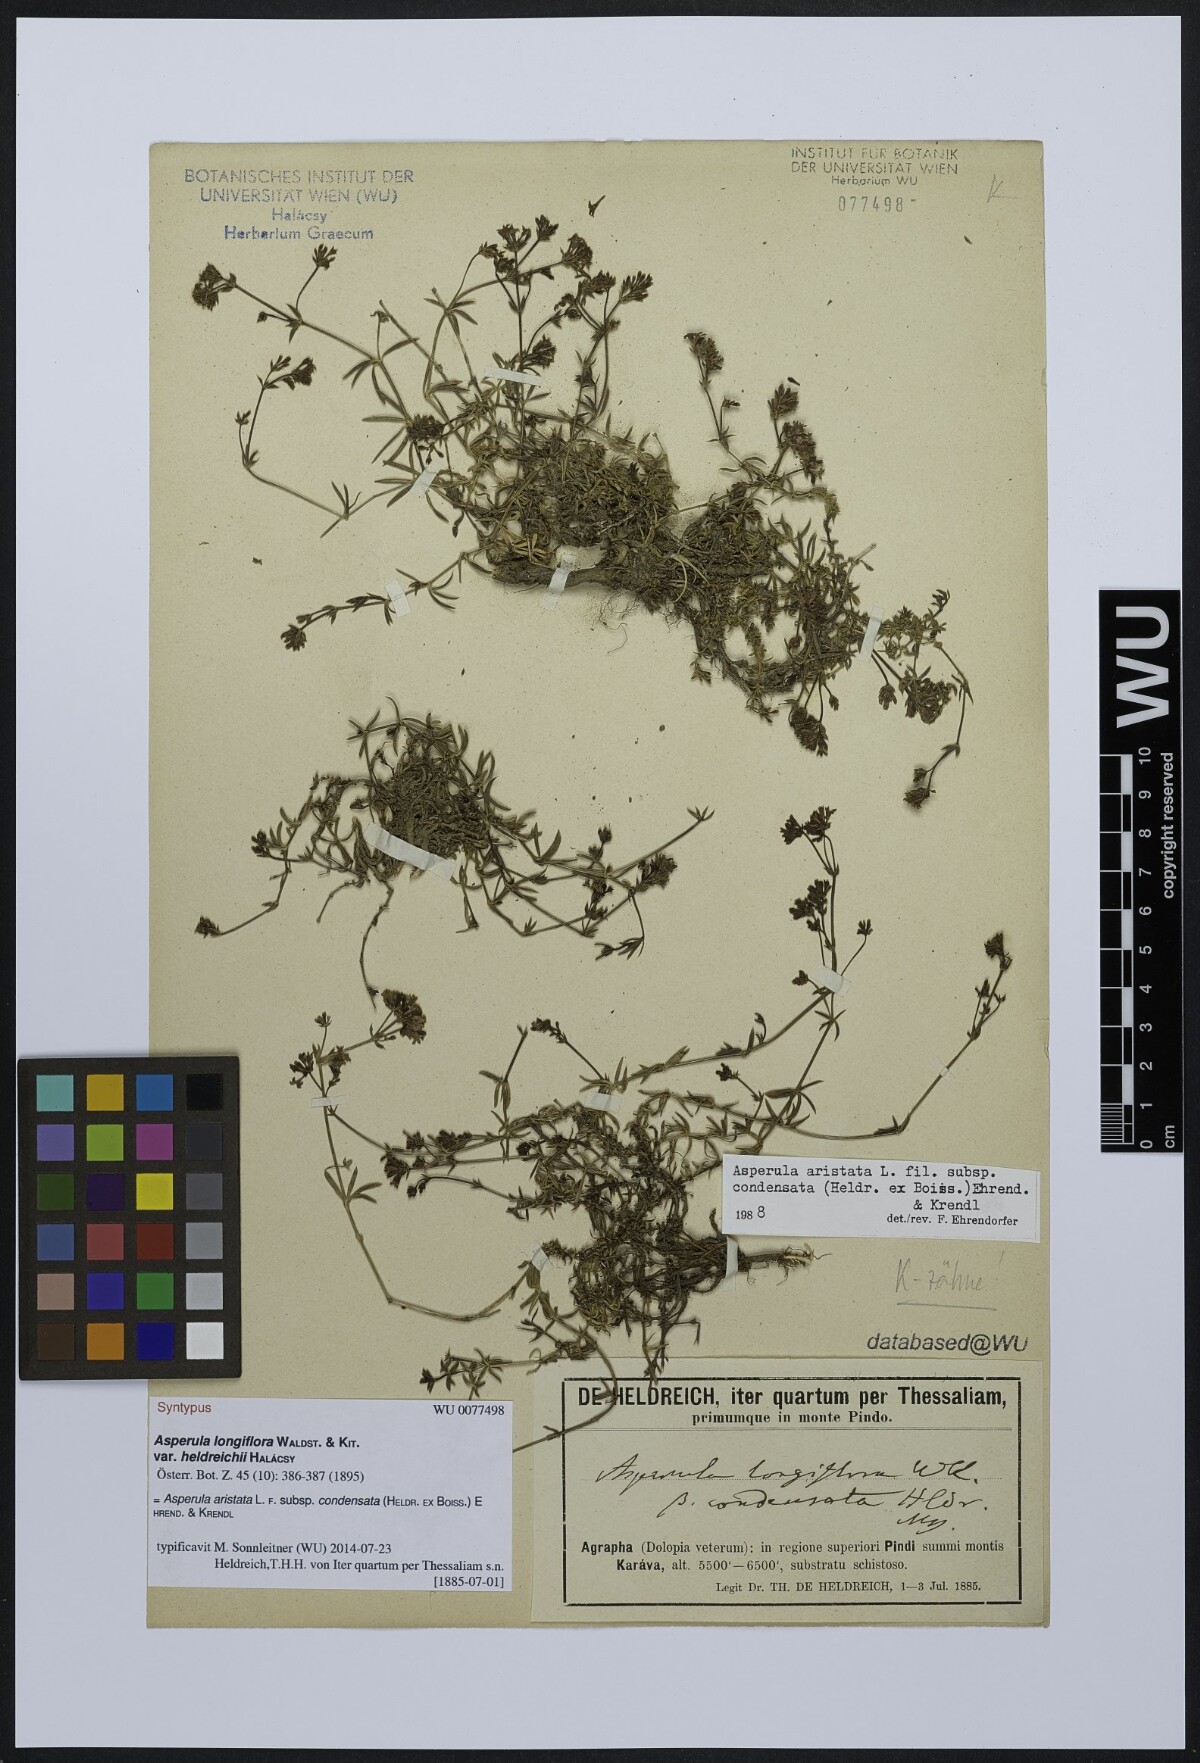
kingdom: Plantae
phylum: Tracheophyta
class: Magnoliopsida
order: Gentianales
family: Rubiaceae
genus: Asperula
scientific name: Asperula longiflora
